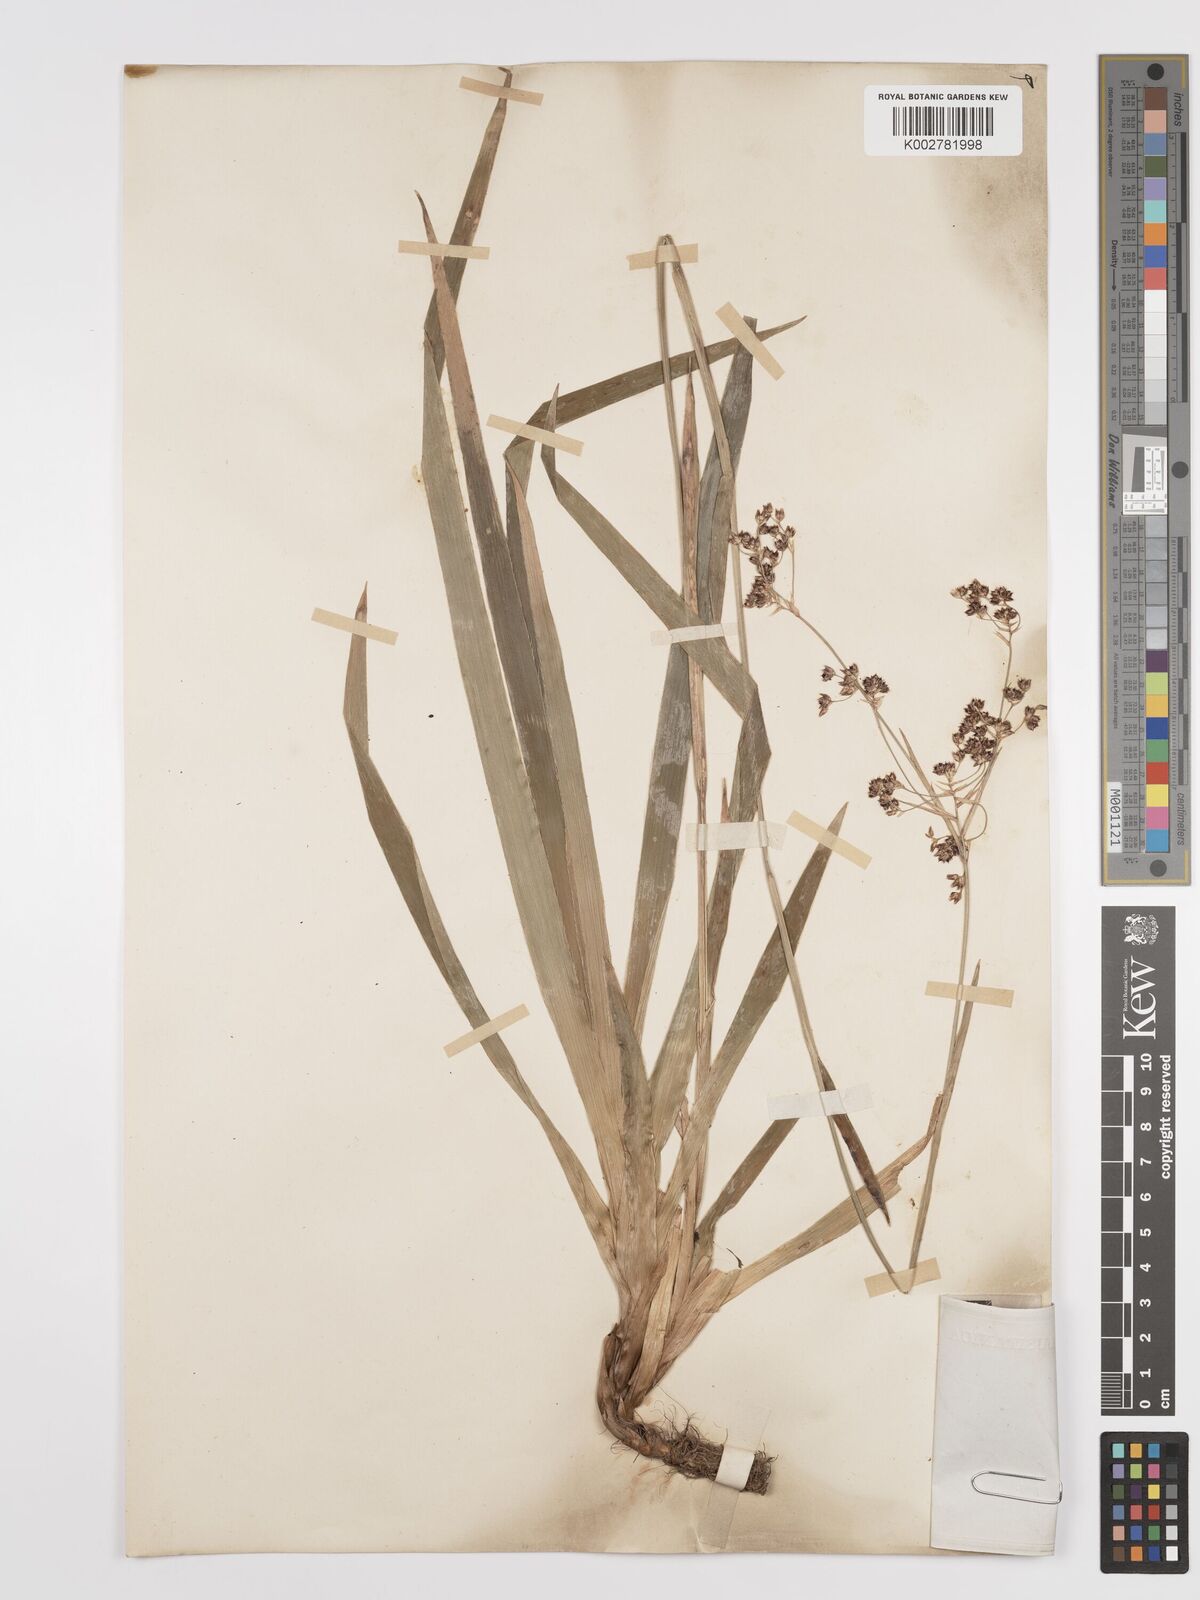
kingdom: Plantae
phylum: Tracheophyta
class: Liliopsida
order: Poales
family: Juncaceae
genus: Luzula
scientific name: Luzula sylvatica
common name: Great wood-rush
